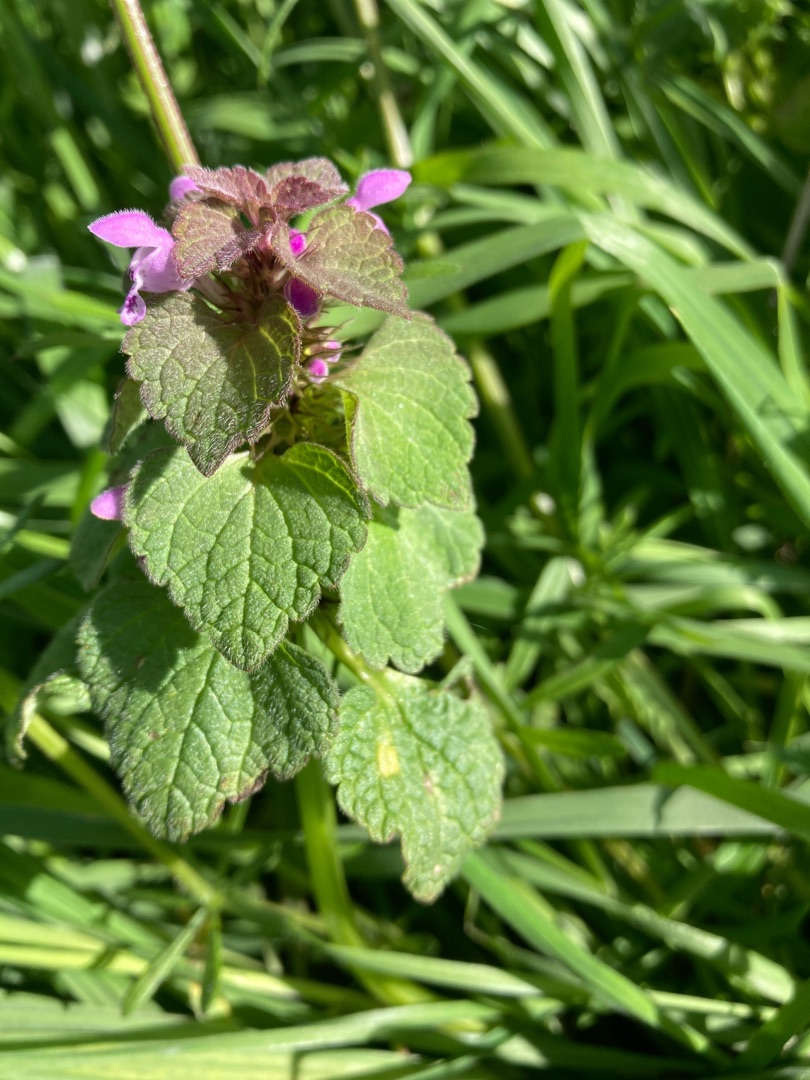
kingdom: Plantae
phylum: Tracheophyta
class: Magnoliopsida
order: Lamiales
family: Lamiaceae
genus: Lamium
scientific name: Lamium purpureum
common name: Rød tvetand
